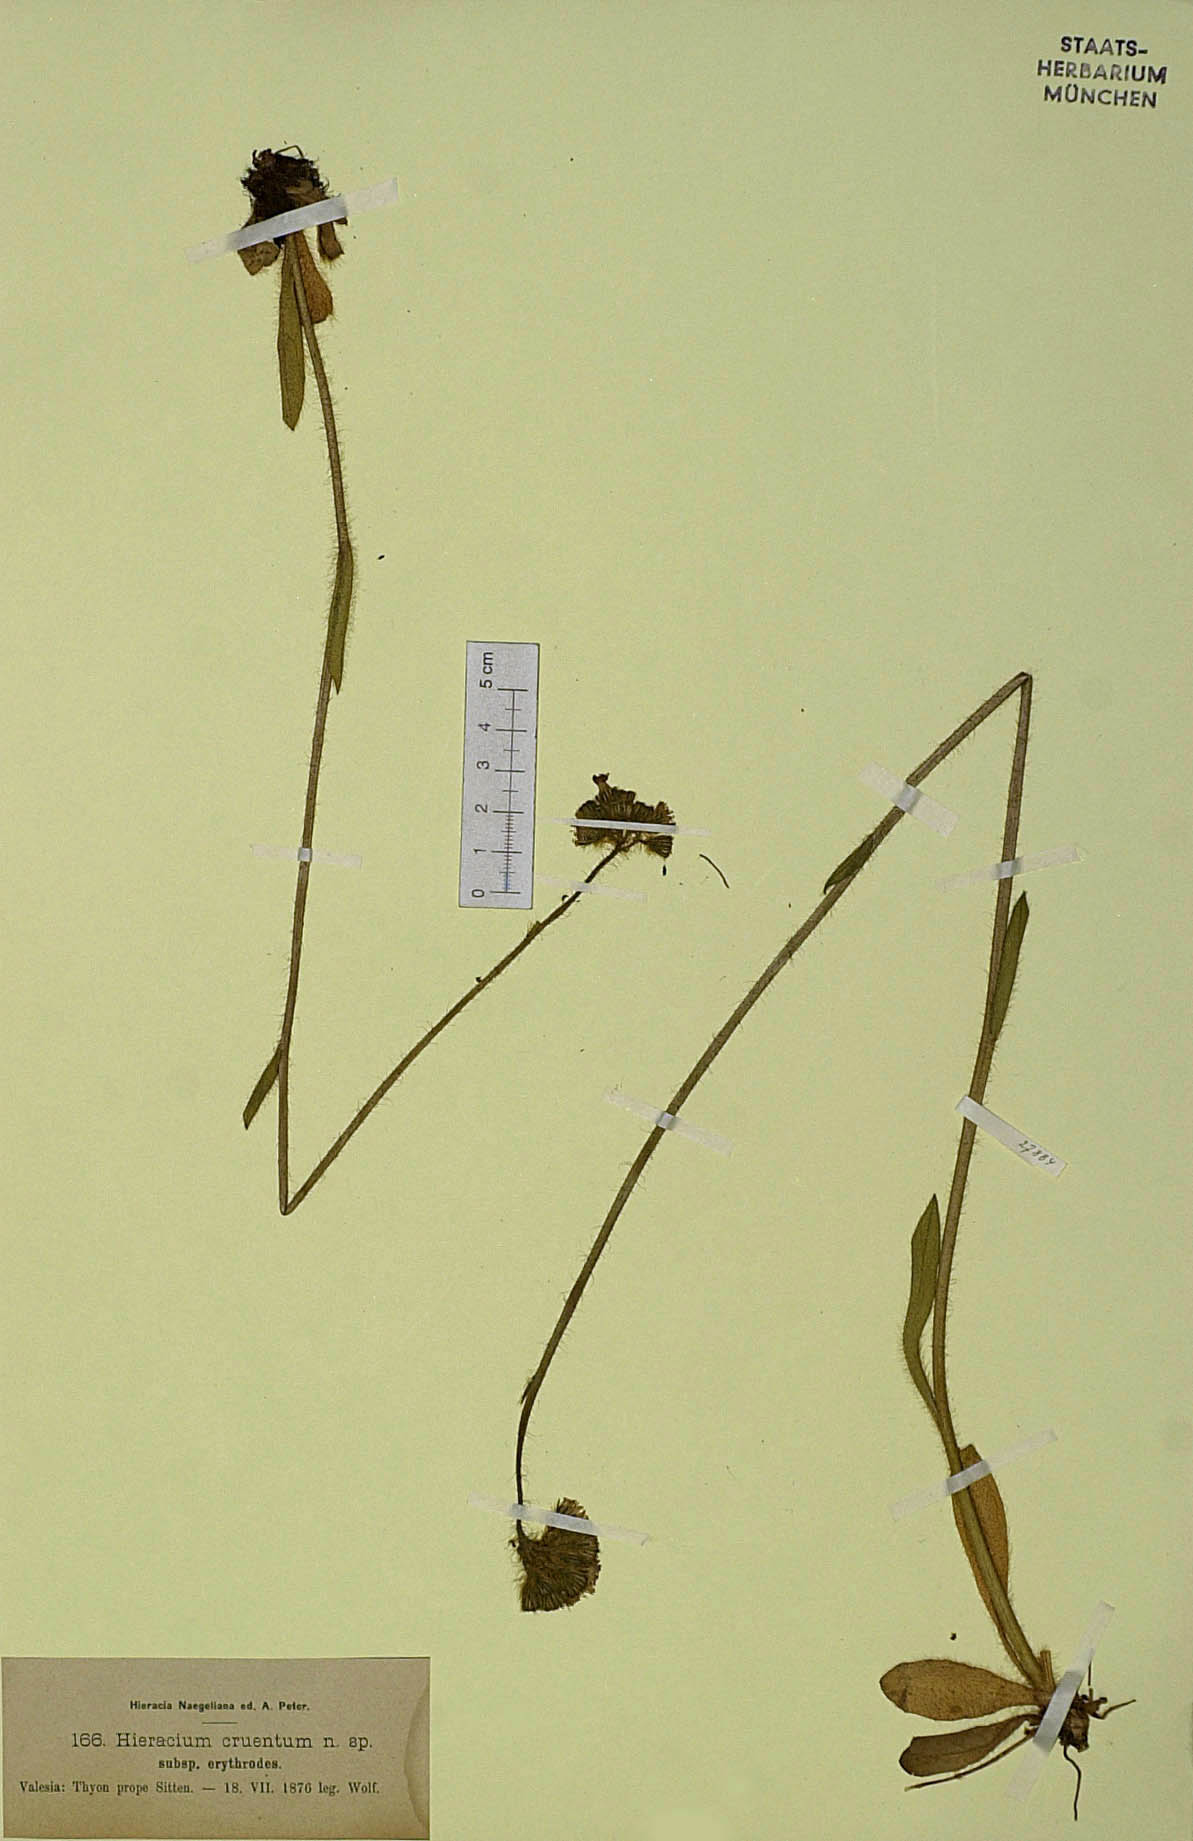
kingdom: Plantae
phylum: Tracheophyta
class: Magnoliopsida
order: Asterales
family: Asteraceae
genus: Pilosella
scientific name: Pilosella guthnikiana
